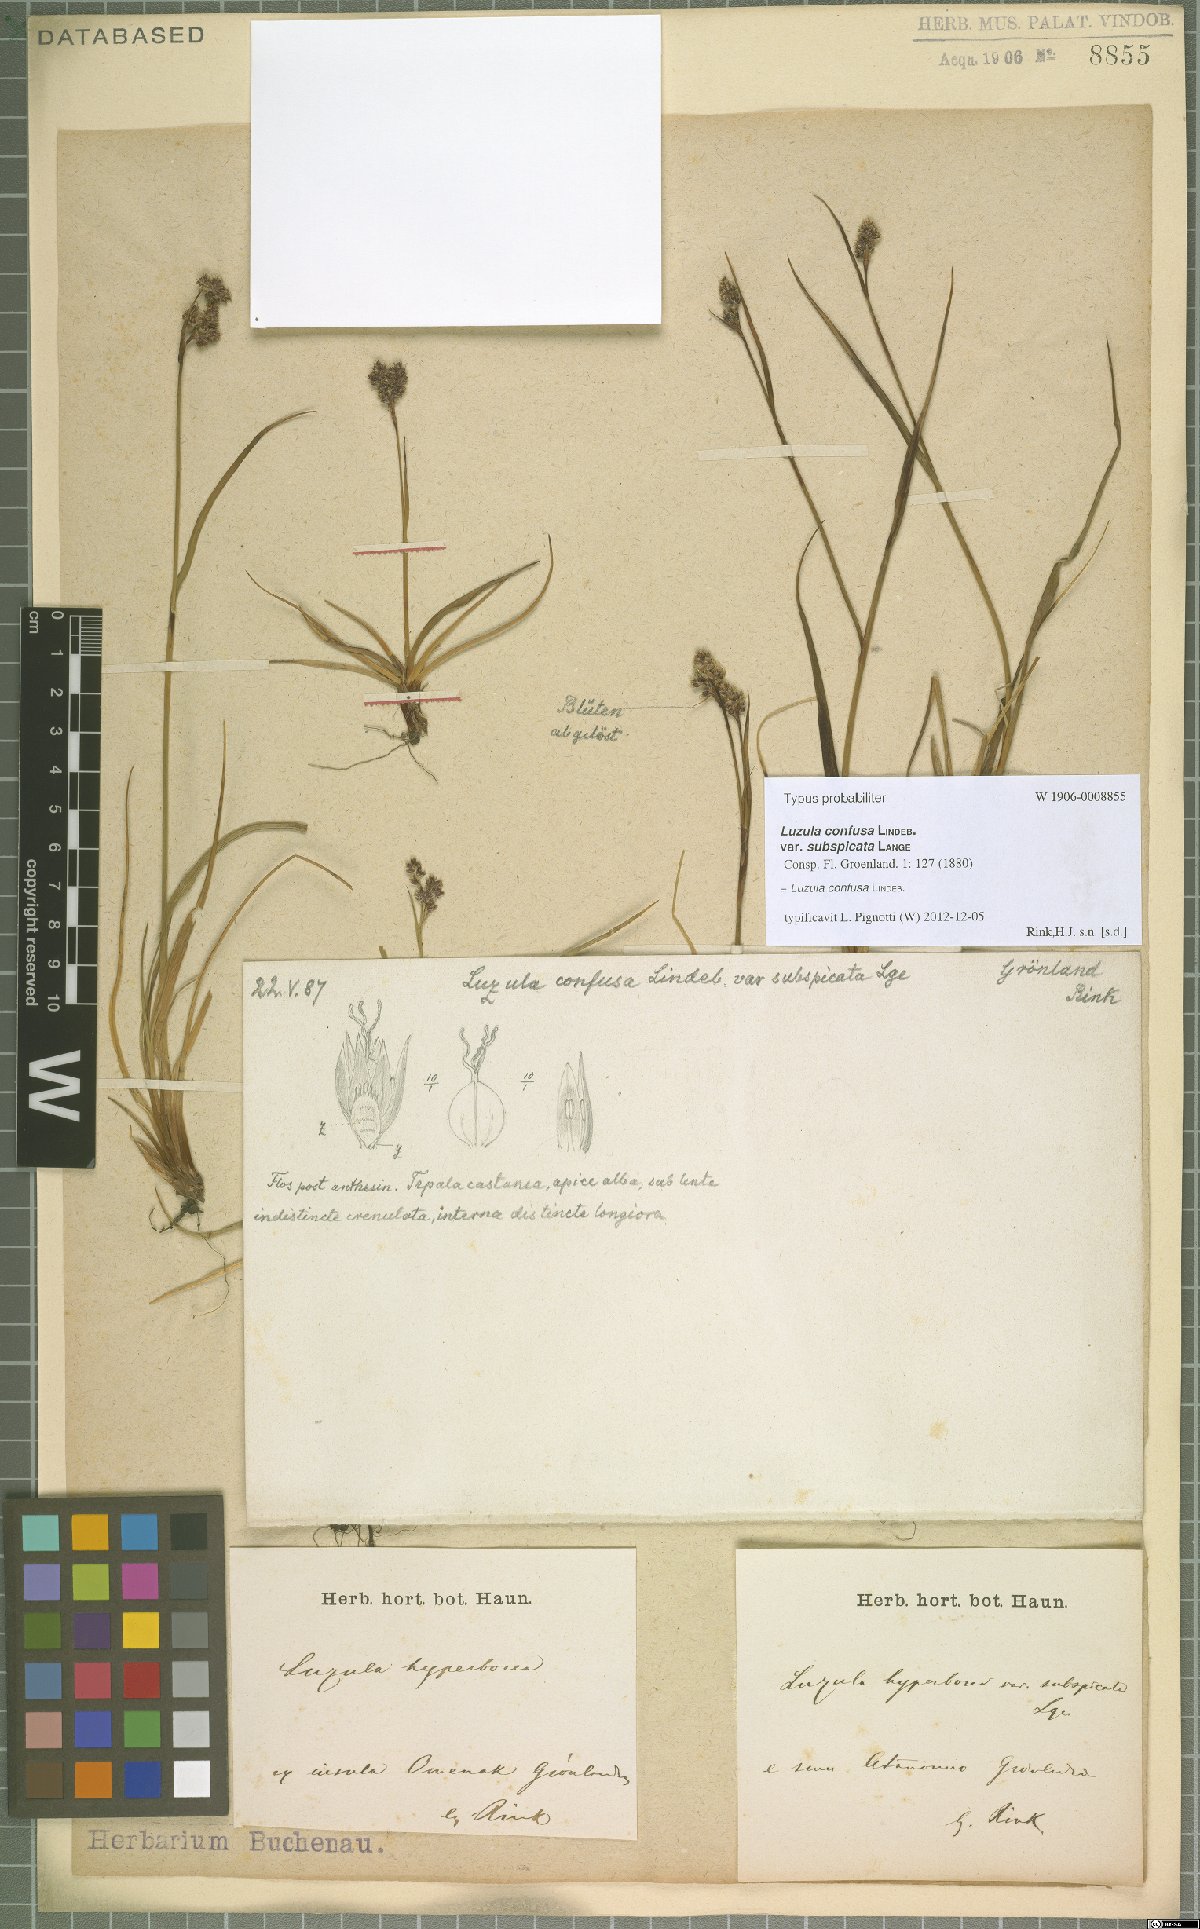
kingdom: Plantae
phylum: Tracheophyta
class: Liliopsida
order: Poales
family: Juncaceae
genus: Luzula
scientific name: Luzula confusa
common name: Northern wood rush
